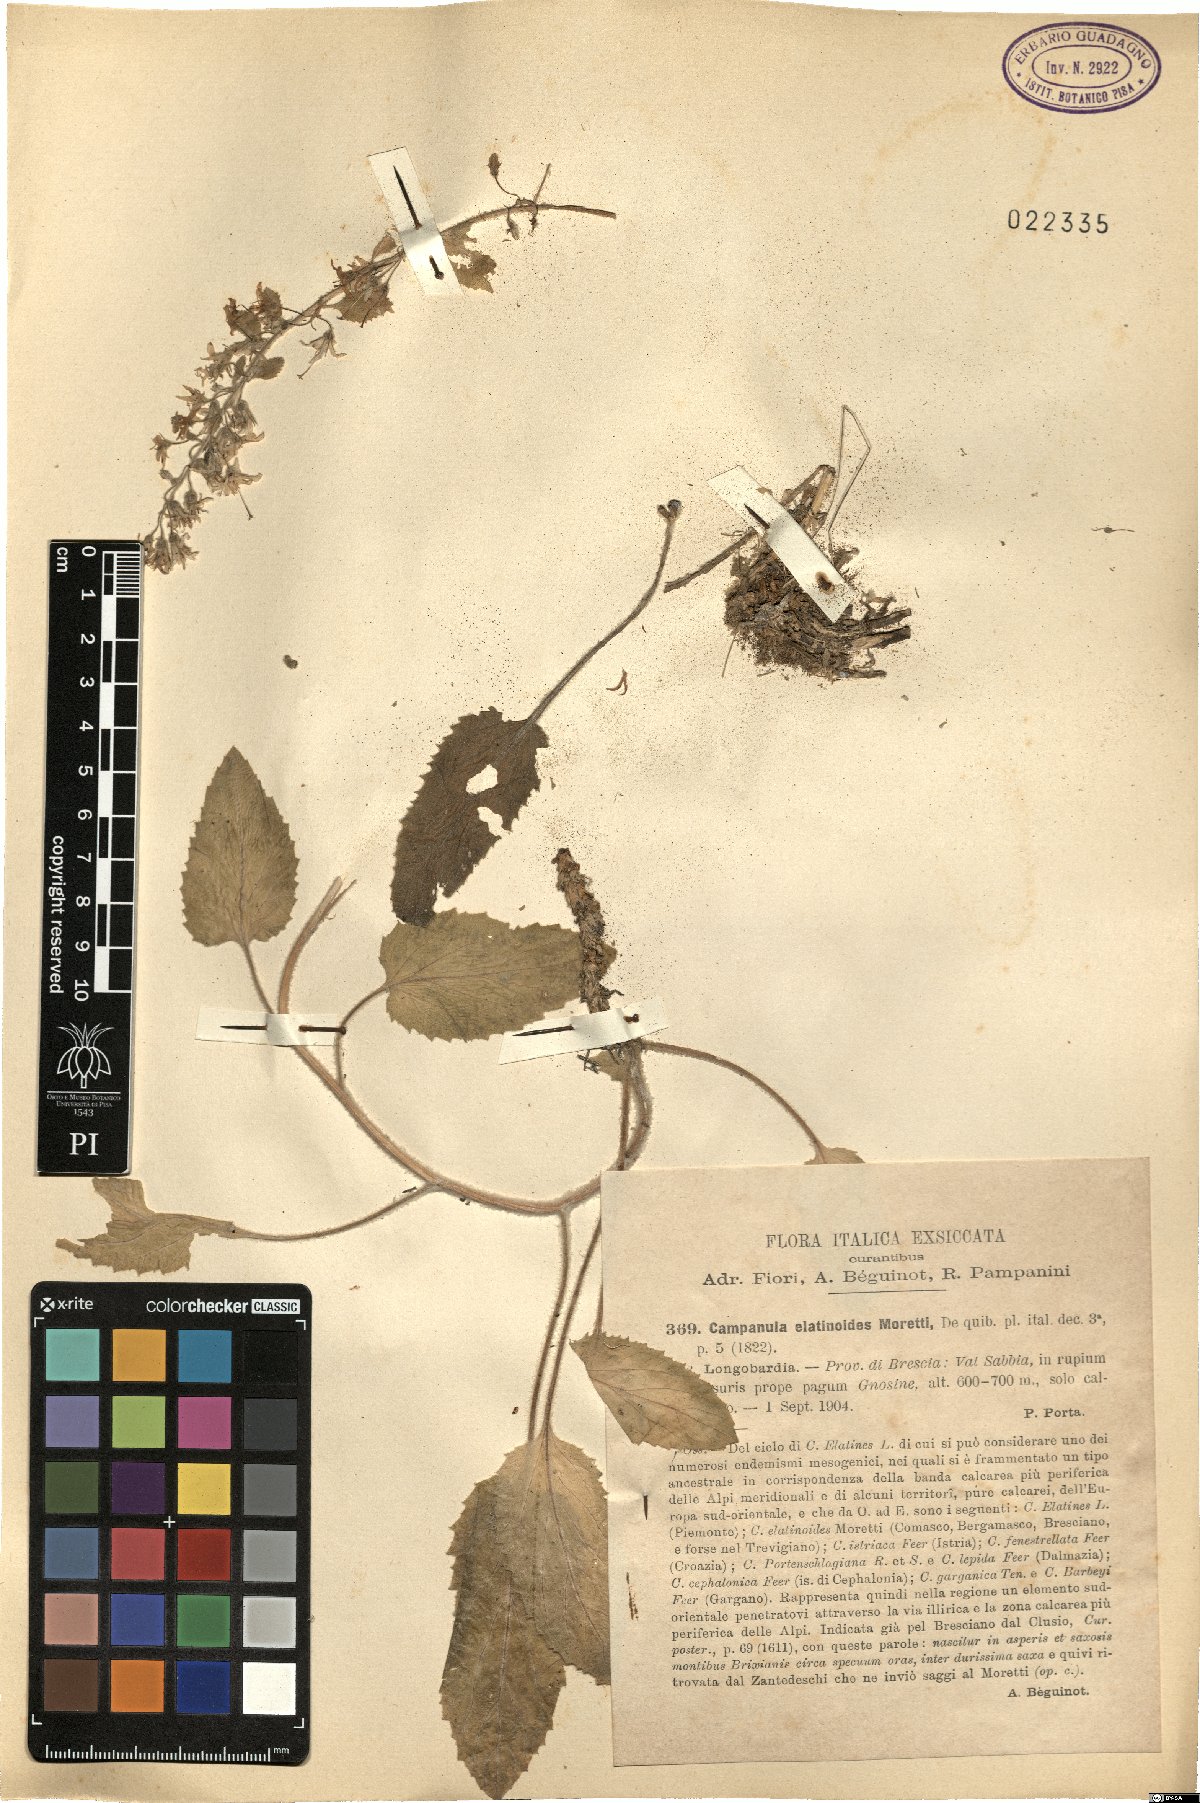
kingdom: Plantae
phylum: Tracheophyta
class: Magnoliopsida
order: Asterales
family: Campanulaceae
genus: Campanula
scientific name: Campanula elatinoides
